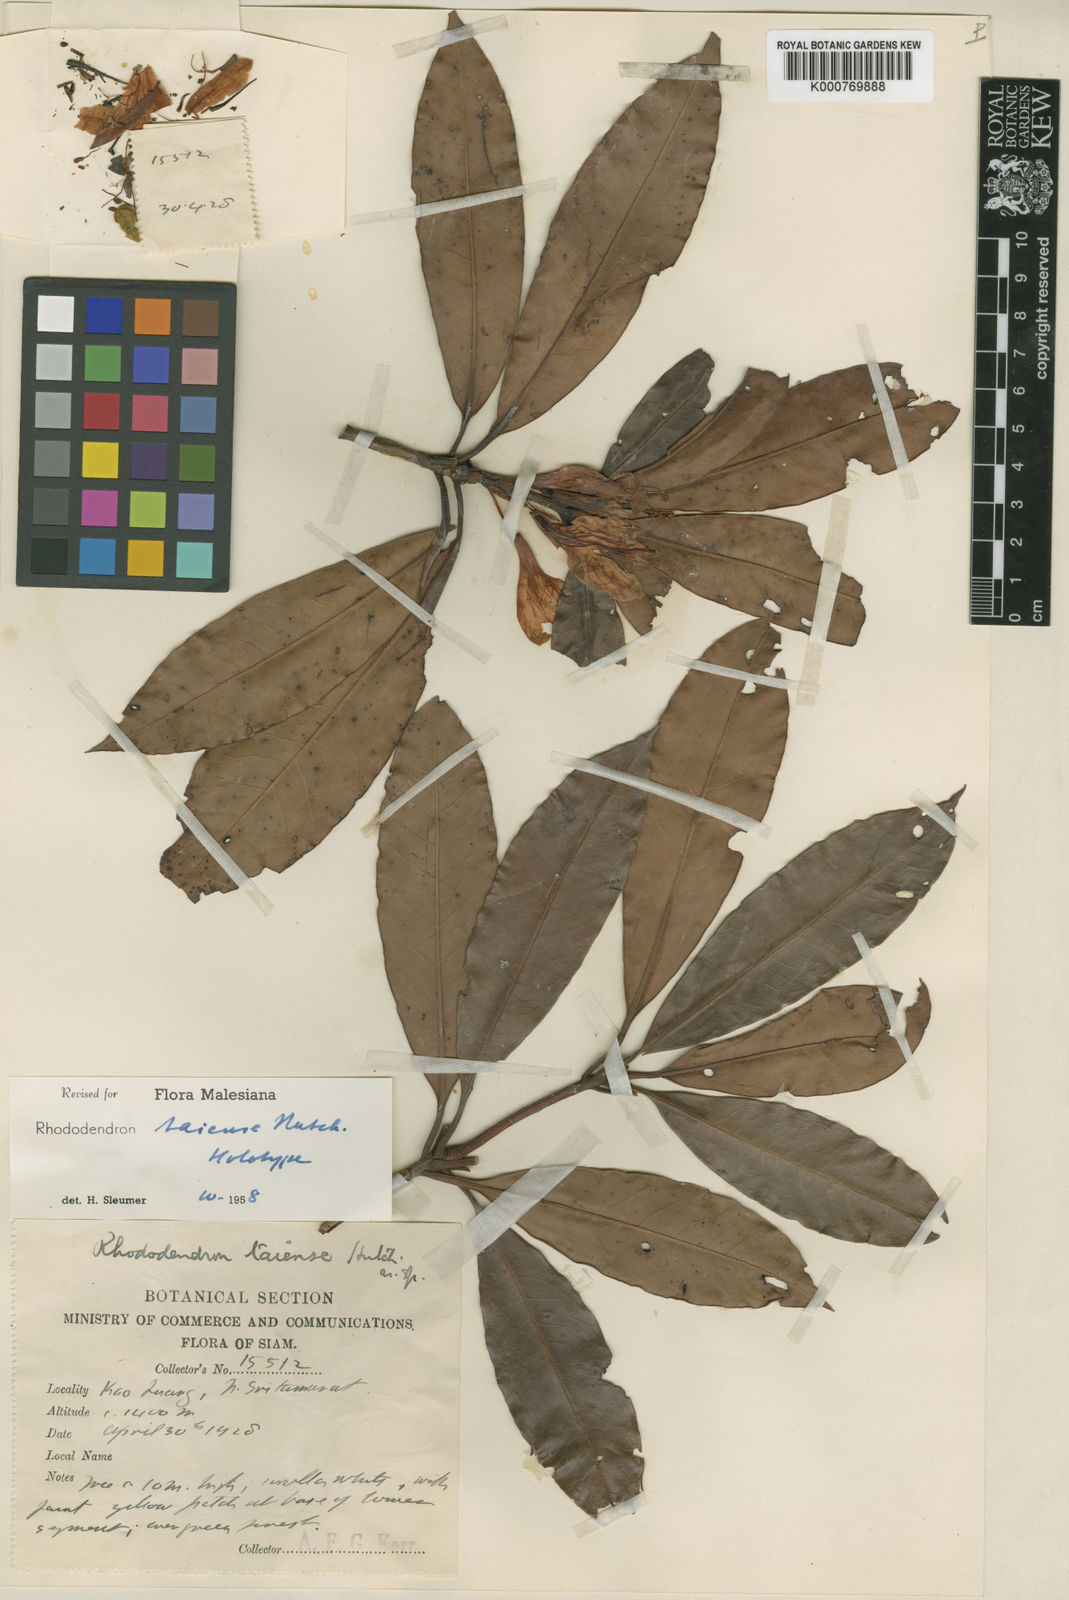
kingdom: Plantae
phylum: Tracheophyta
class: Magnoliopsida
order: Ericales
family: Ericaceae
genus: Rhododendron
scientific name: Rhododendron taiense
